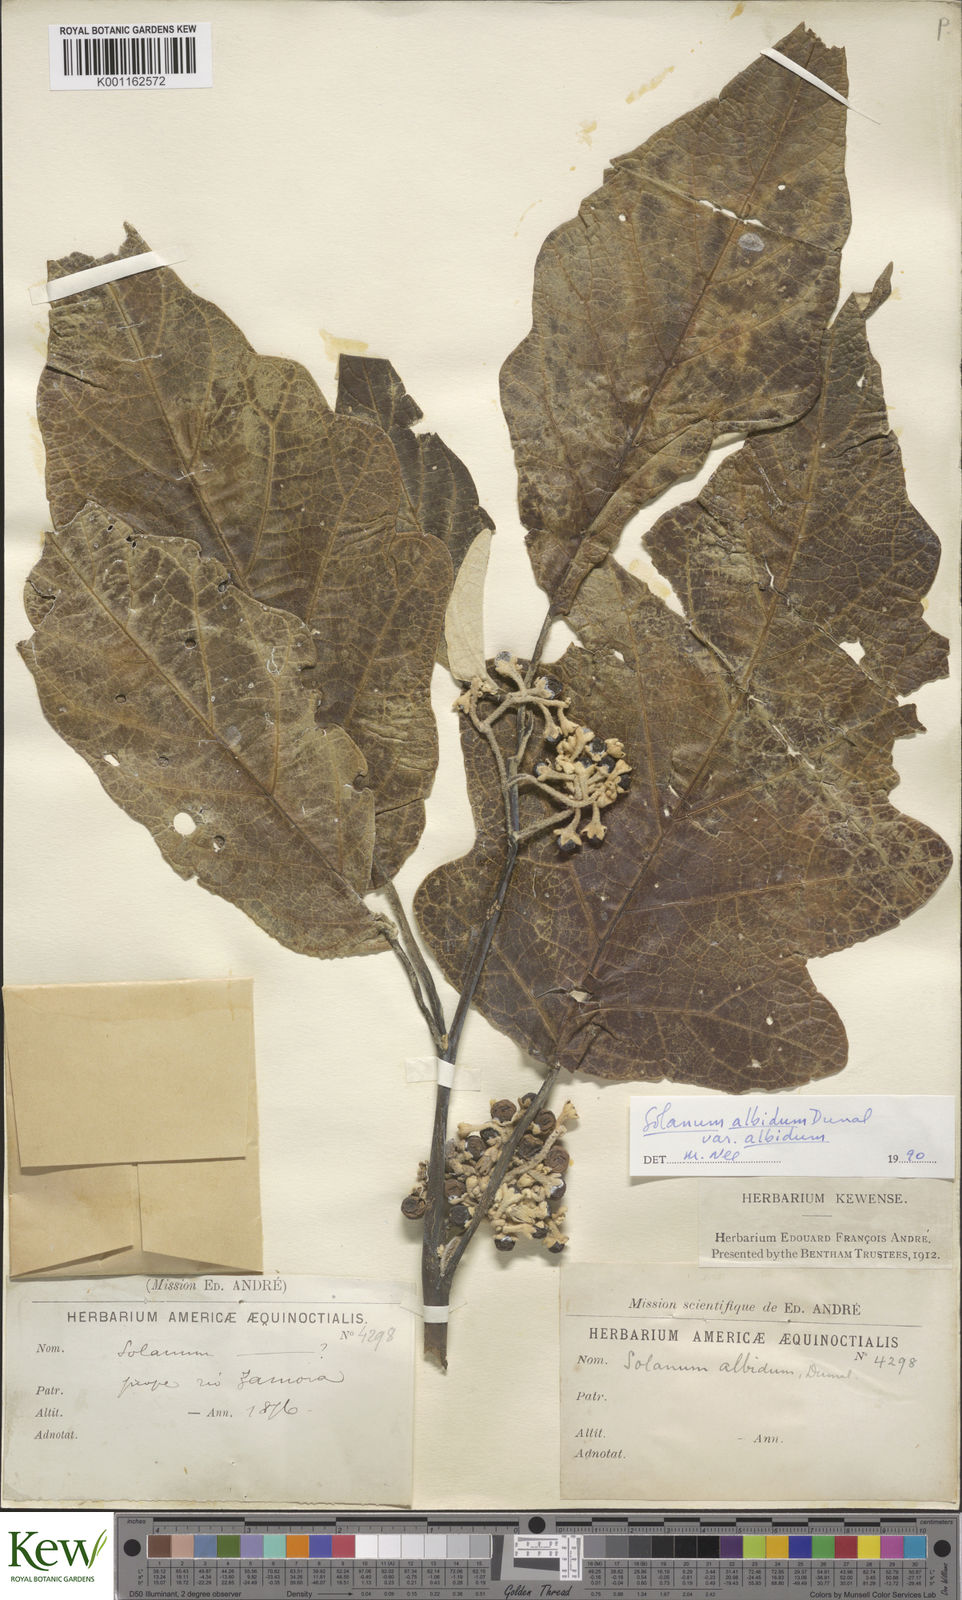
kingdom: Plantae
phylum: Tracheophyta
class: Magnoliopsida
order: Solanales
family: Solanaceae
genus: Solanum
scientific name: Solanum albidum
